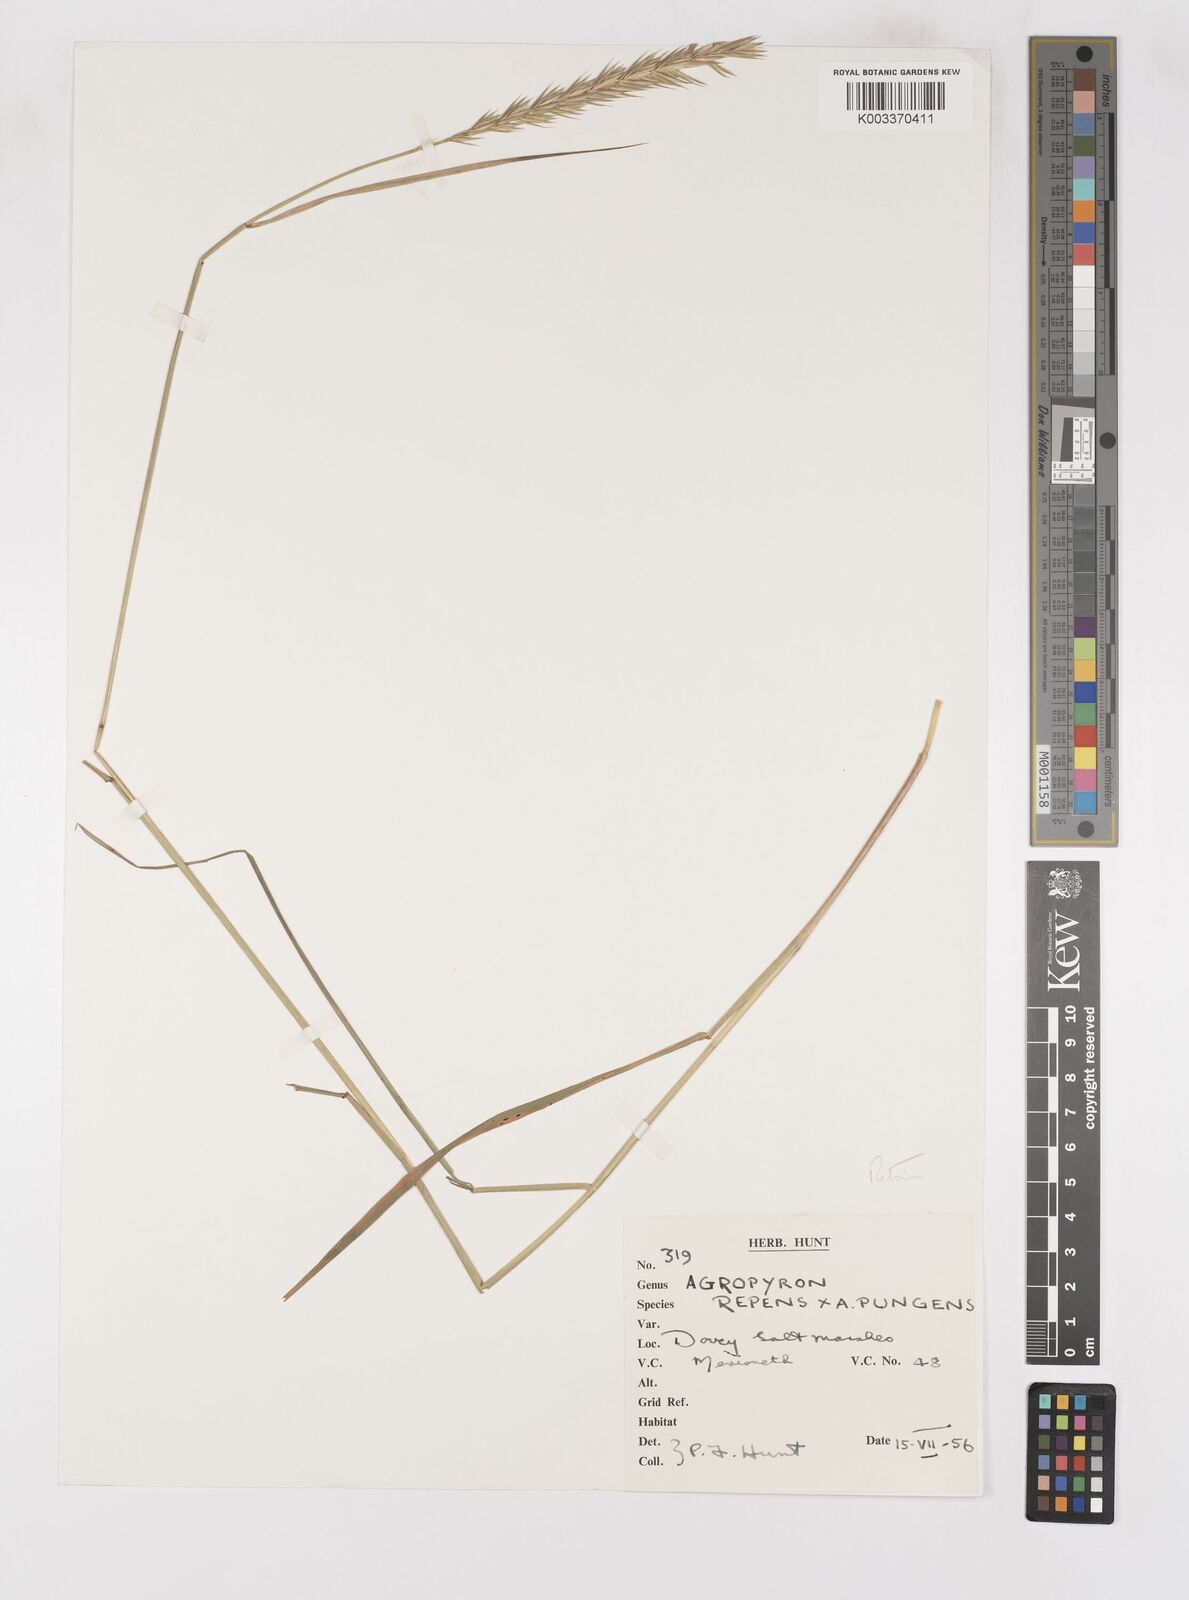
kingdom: Plantae
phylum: Tracheophyta
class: Liliopsida
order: Poales
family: Poaceae
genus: Elymus
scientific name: Elymus oliveri
